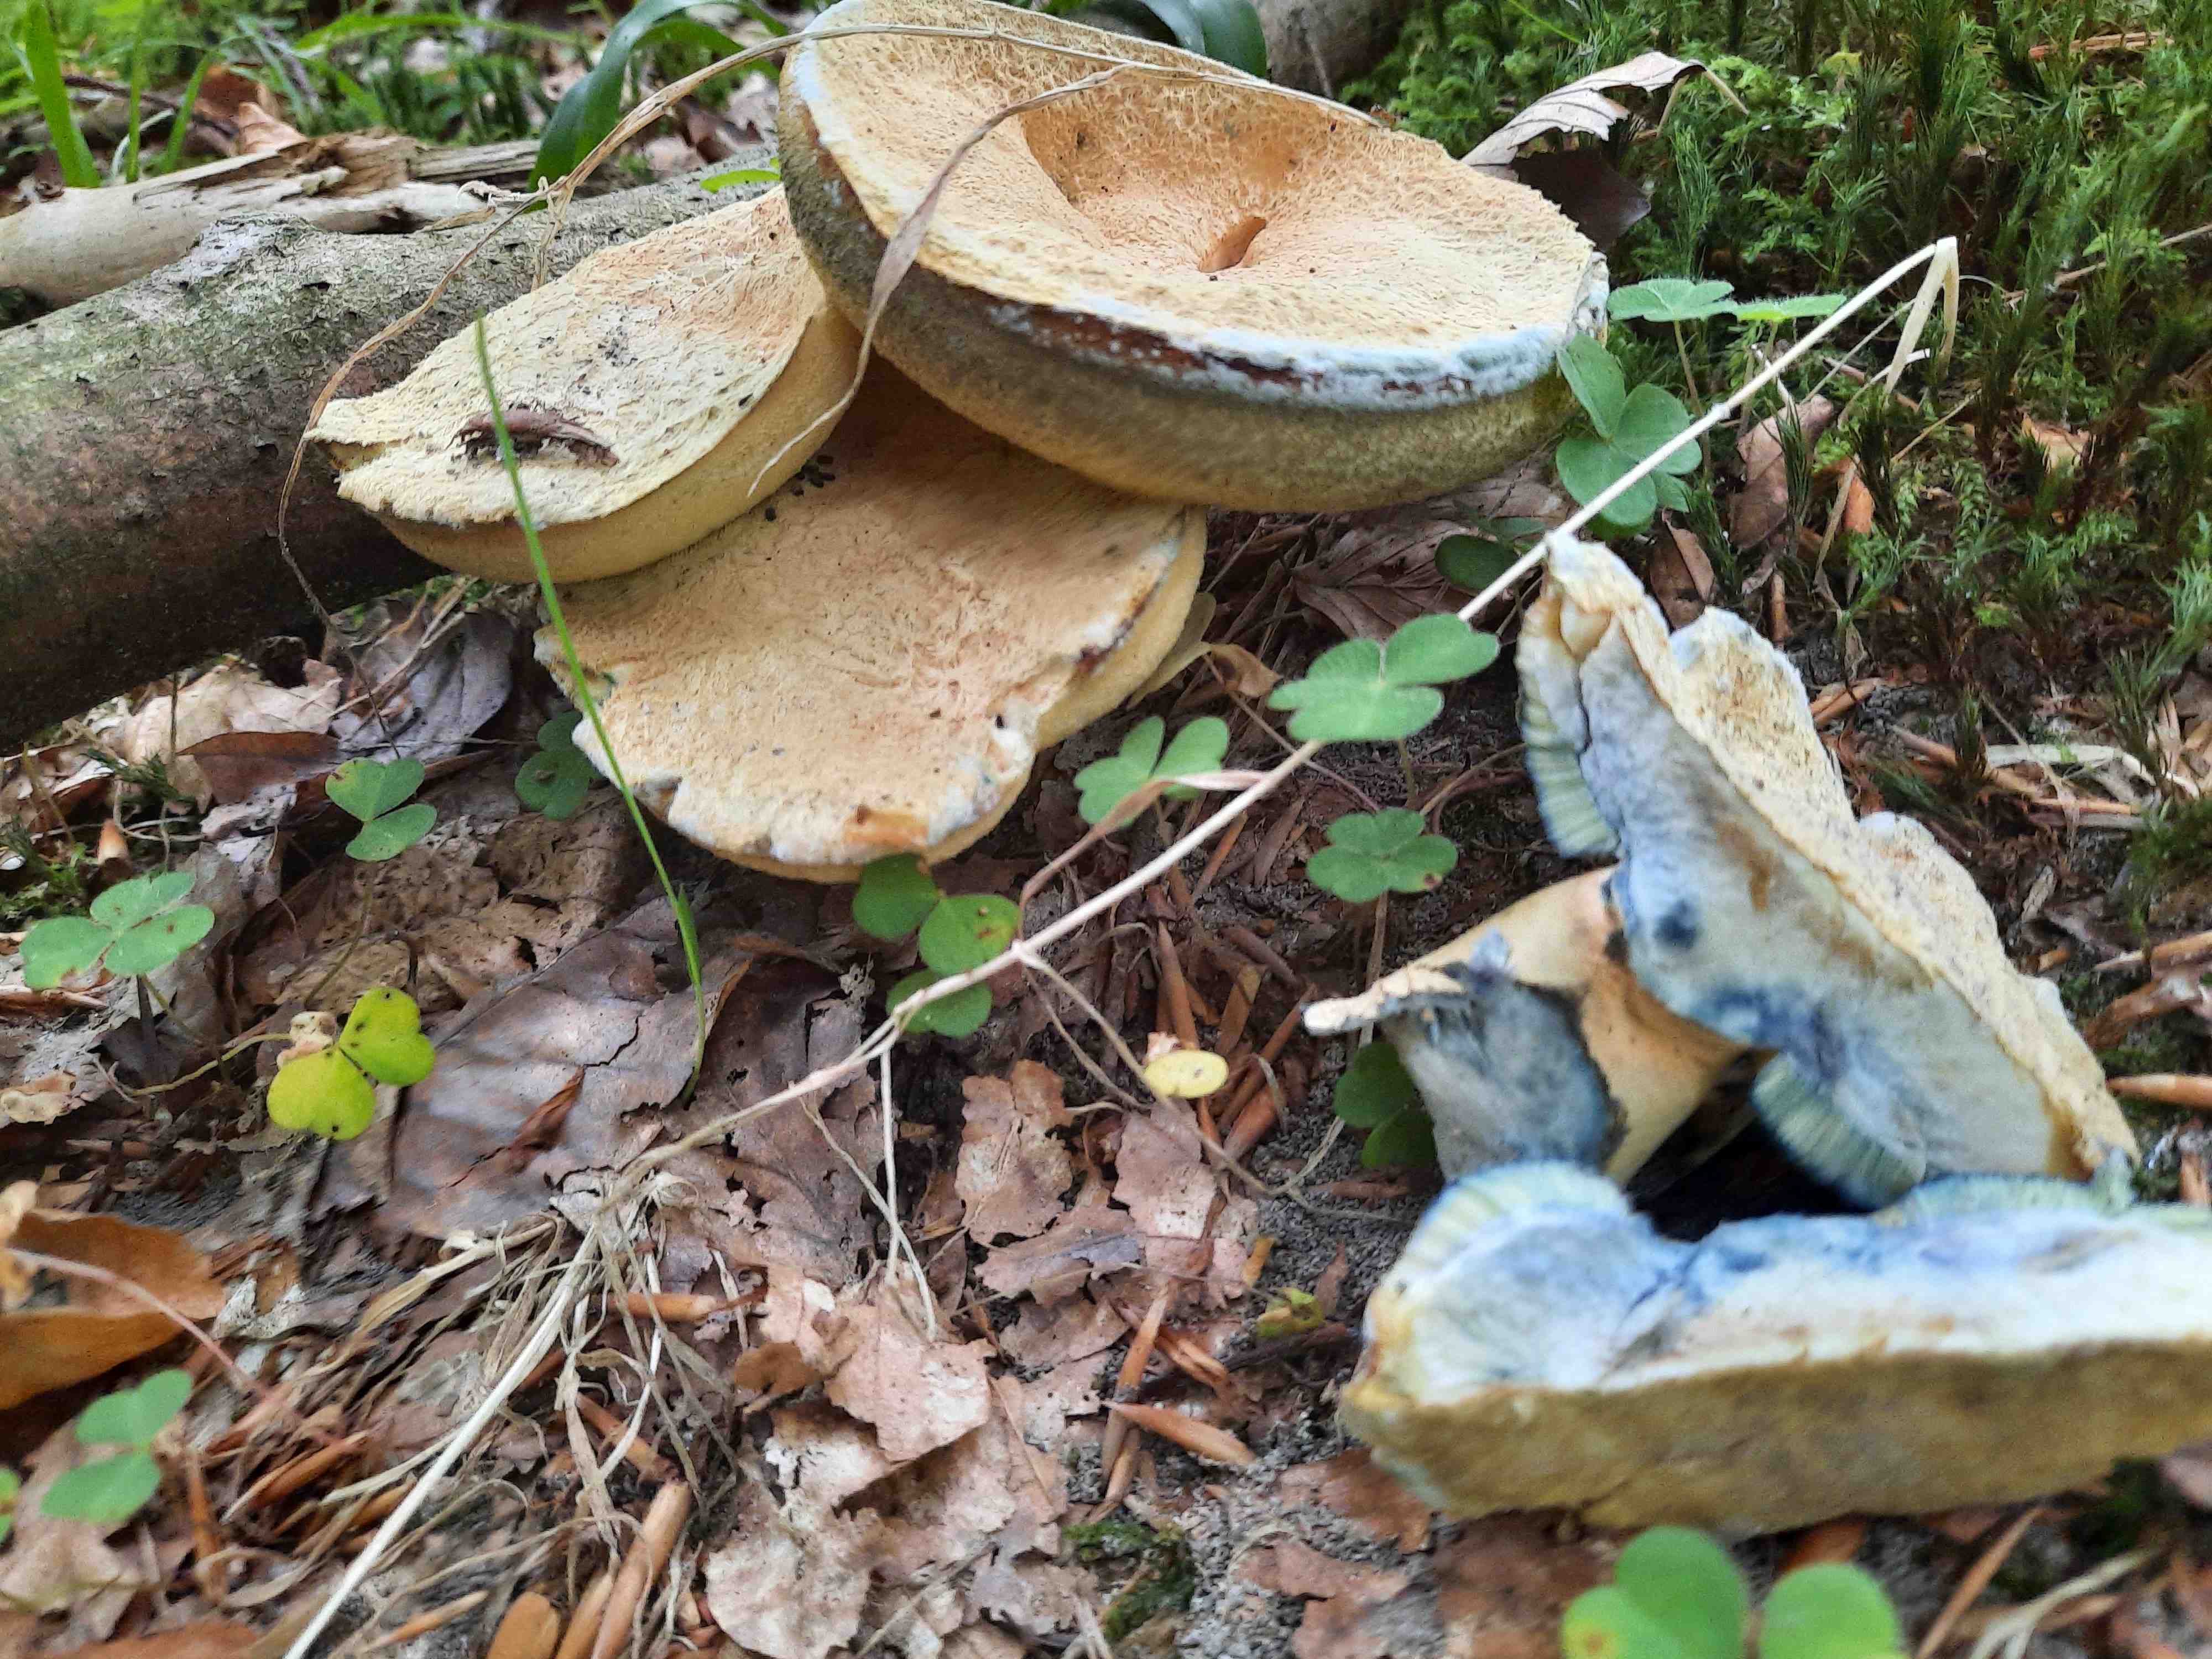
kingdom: Fungi
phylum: Basidiomycota
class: Agaricomycetes
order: Boletales
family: Gyroporaceae
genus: Gyroporus
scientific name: Gyroporus cyanescens
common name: blånende kammerrørhat
